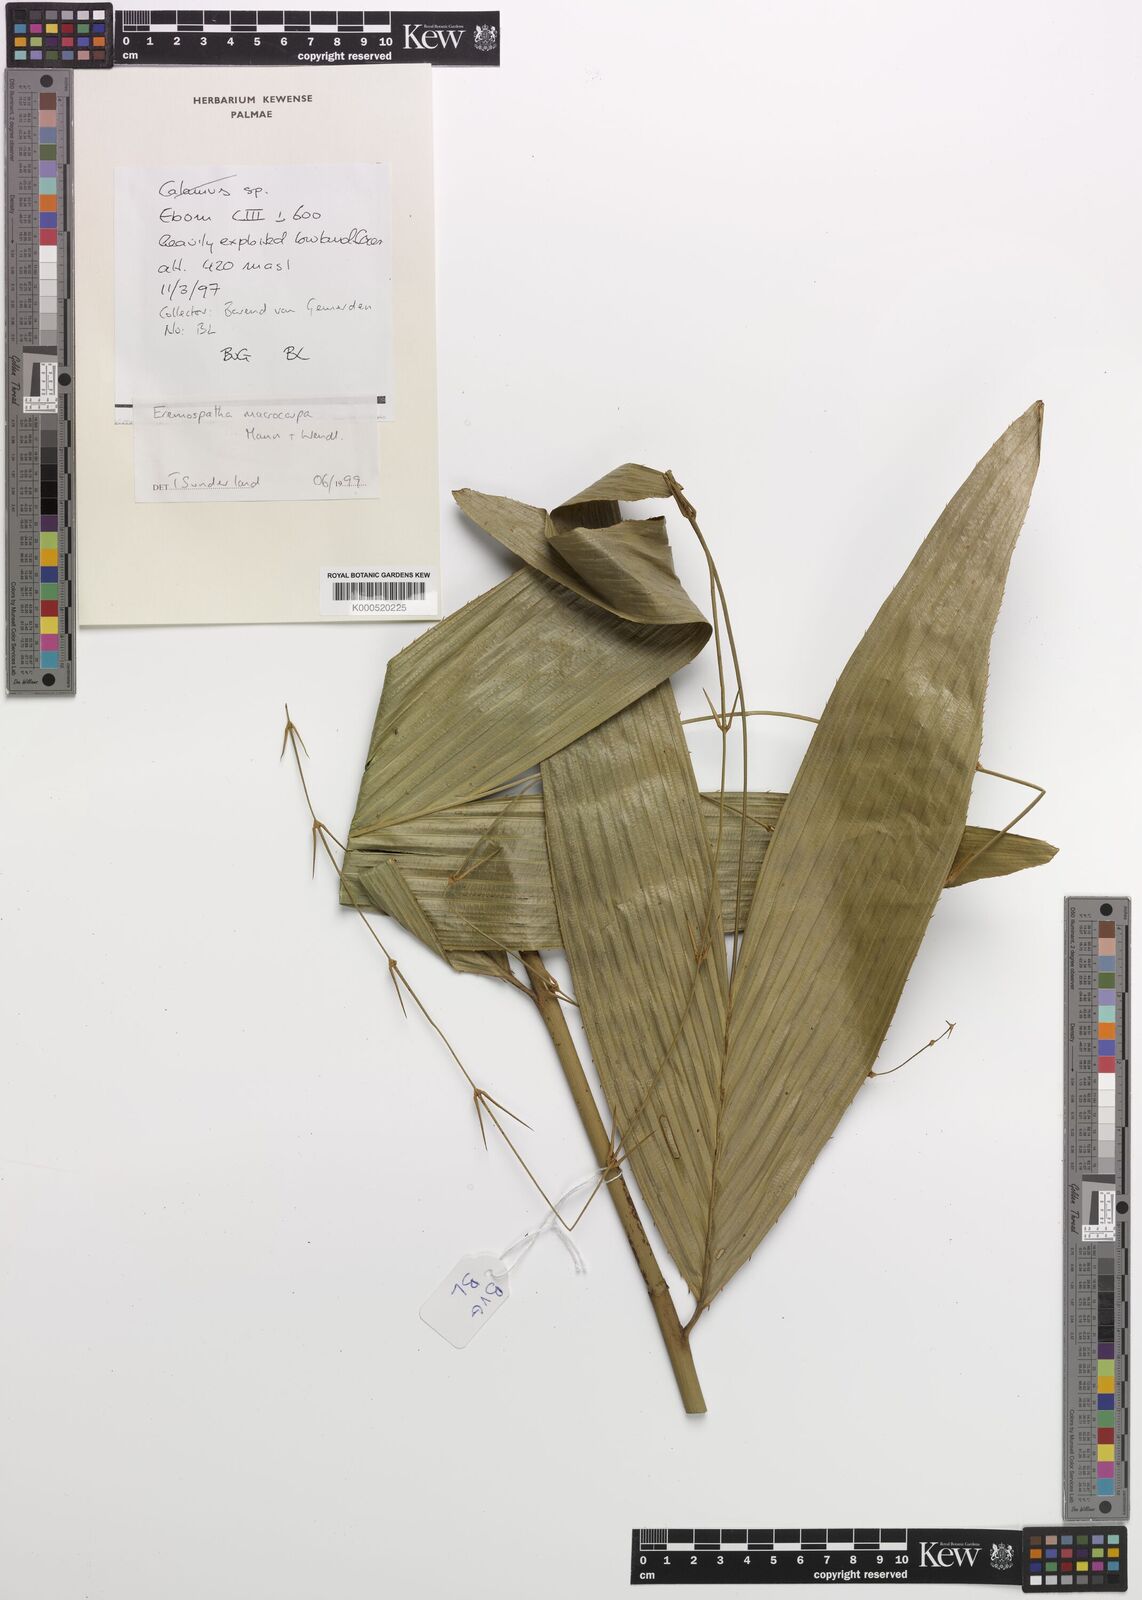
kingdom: Plantae
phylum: Tracheophyta
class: Liliopsida
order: Arecales
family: Arecaceae
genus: Eremospatha
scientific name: Eremospatha
